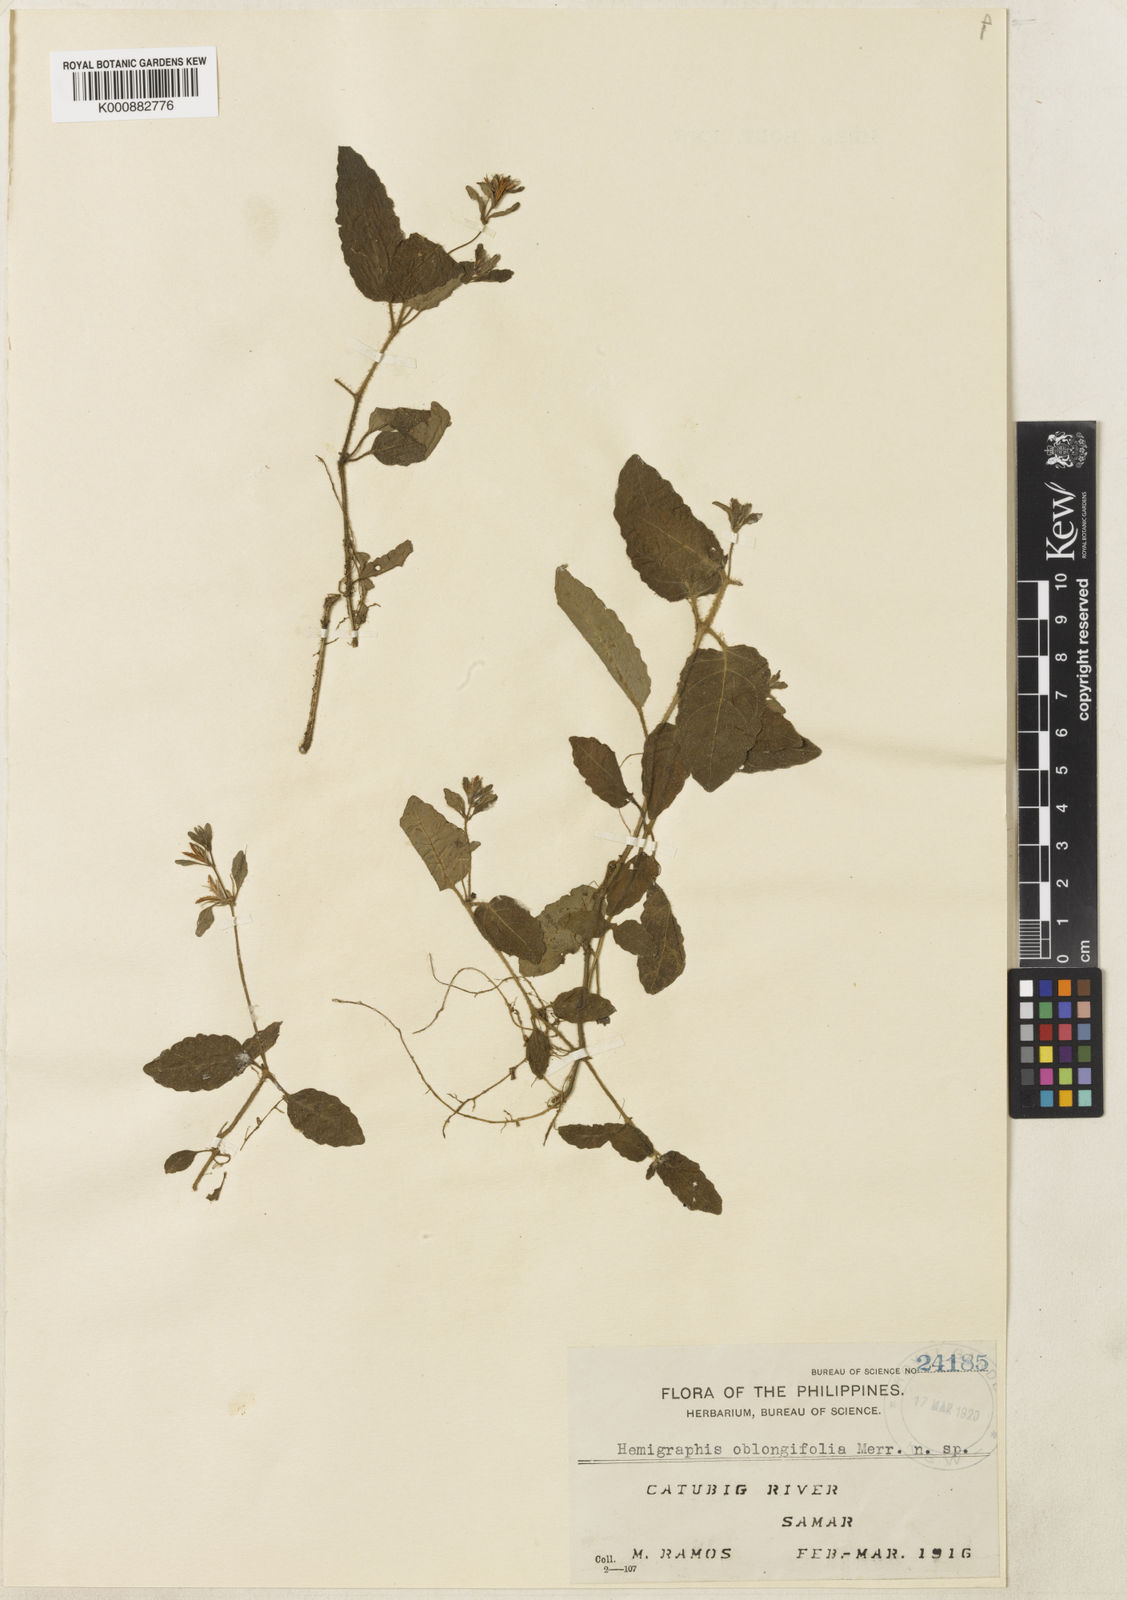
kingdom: Plantae
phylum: Tracheophyta
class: Magnoliopsida
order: Lamiales
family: Acanthaceae
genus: Strobilanthes
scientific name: Strobilanthes reptans
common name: Acanthaceae
